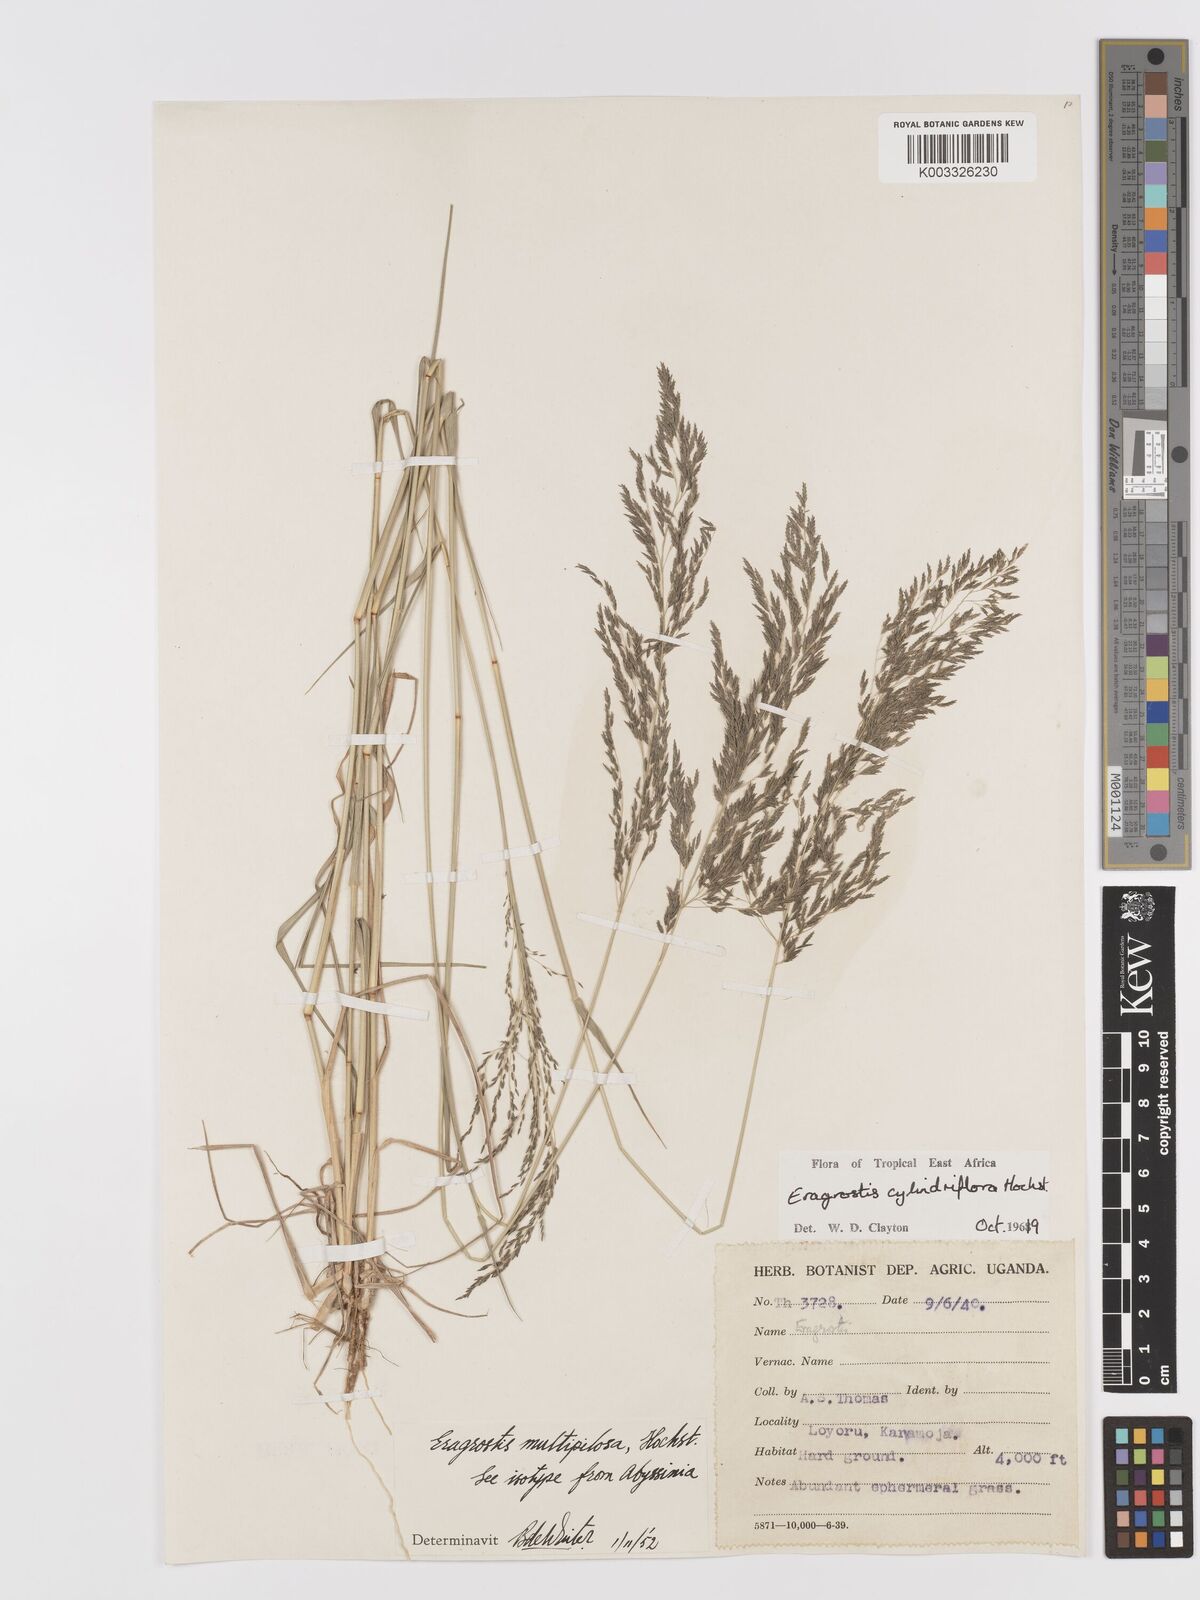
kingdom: Plantae
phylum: Tracheophyta
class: Liliopsida
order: Poales
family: Poaceae
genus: Eragrostis
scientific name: Eragrostis cylindriflora
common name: Cylinderflower lovegrass
